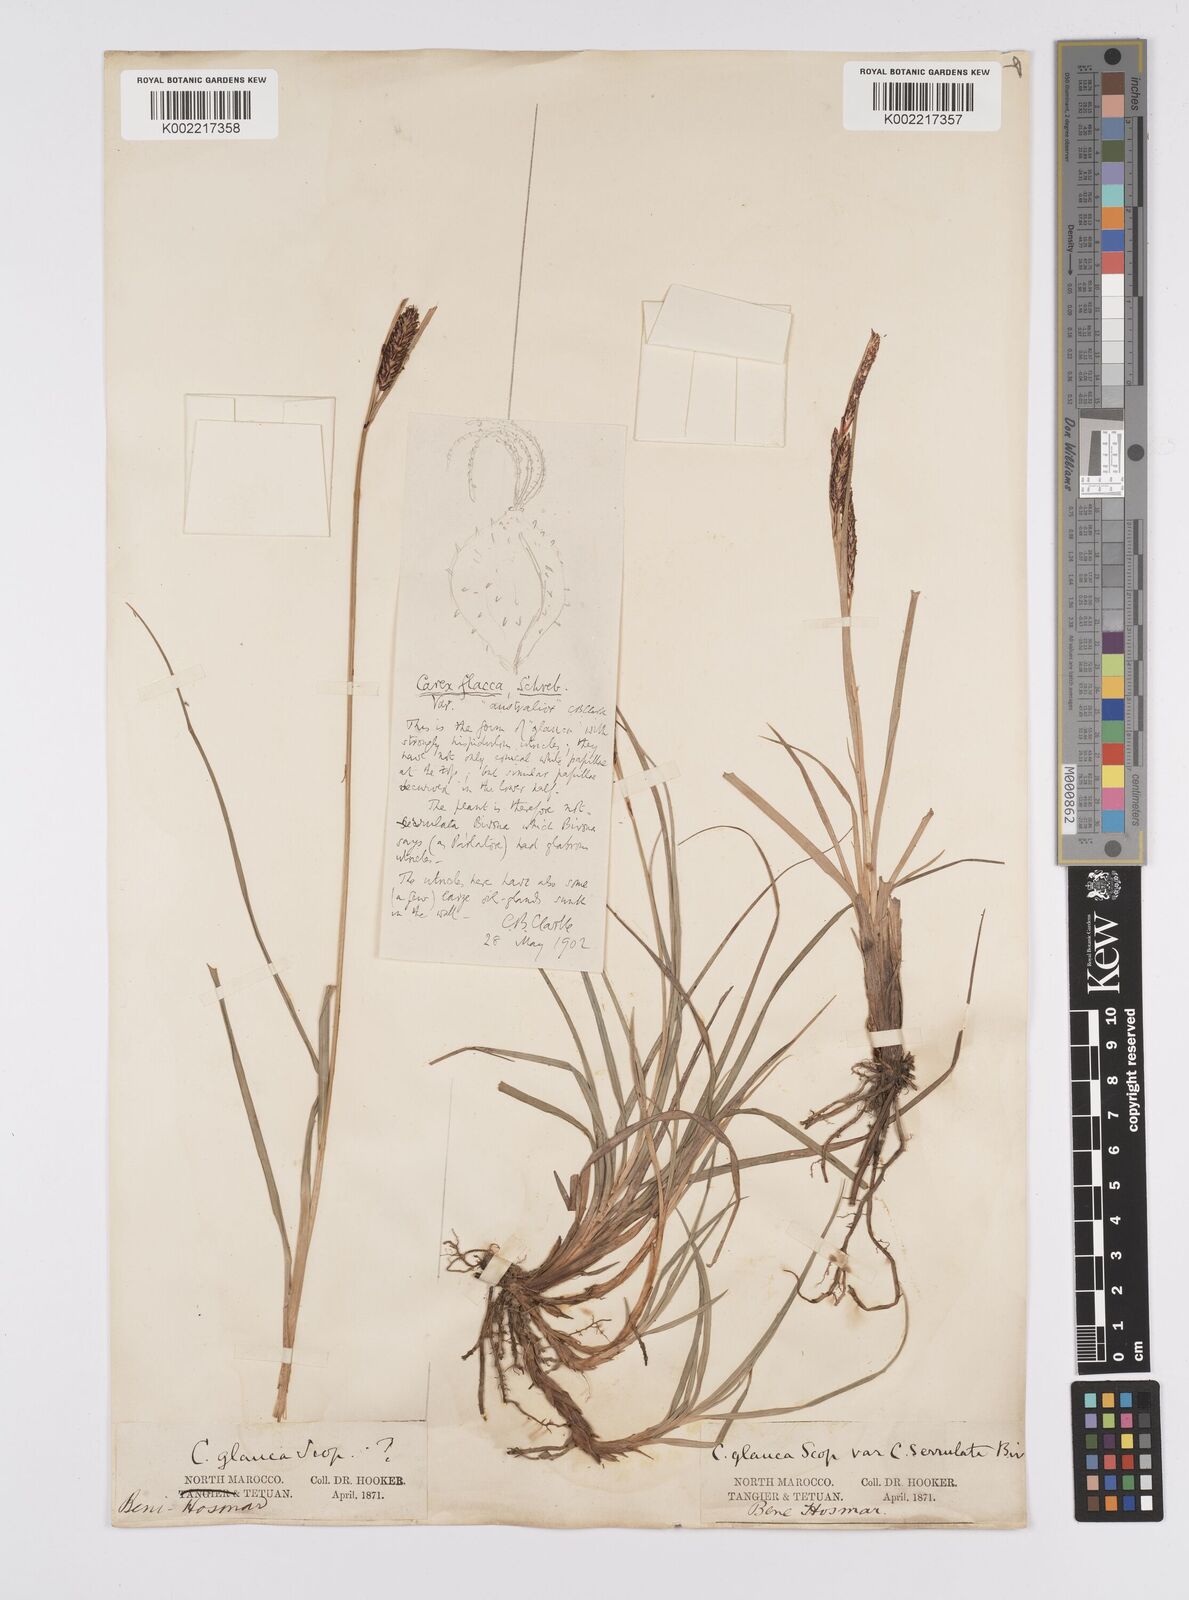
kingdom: Plantae
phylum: Tracheophyta
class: Liliopsida
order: Poales
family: Cyperaceae
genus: Carex
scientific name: Carex flacca
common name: Glaucous sedge
